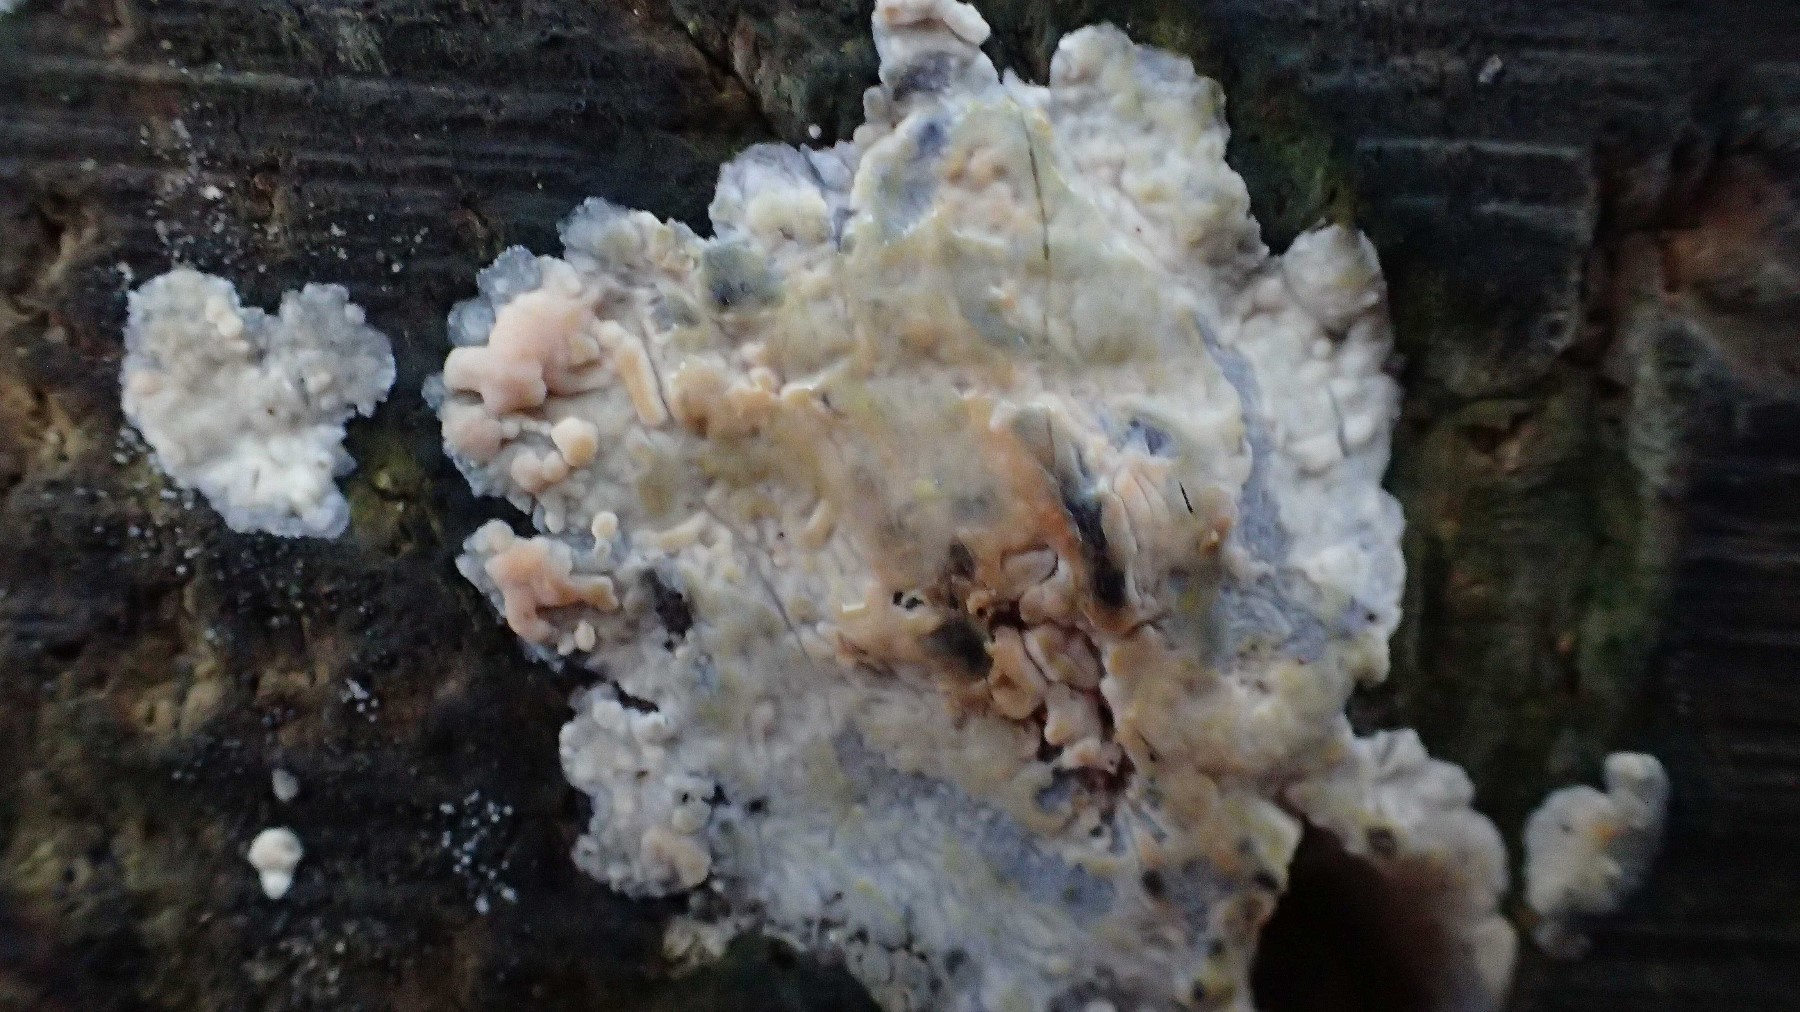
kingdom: Fungi
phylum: Basidiomycota
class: Agaricomycetes
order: Agaricales
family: Radulomycetaceae
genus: Radulomyces
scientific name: Radulomyces confluens
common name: glat naftalinskind
